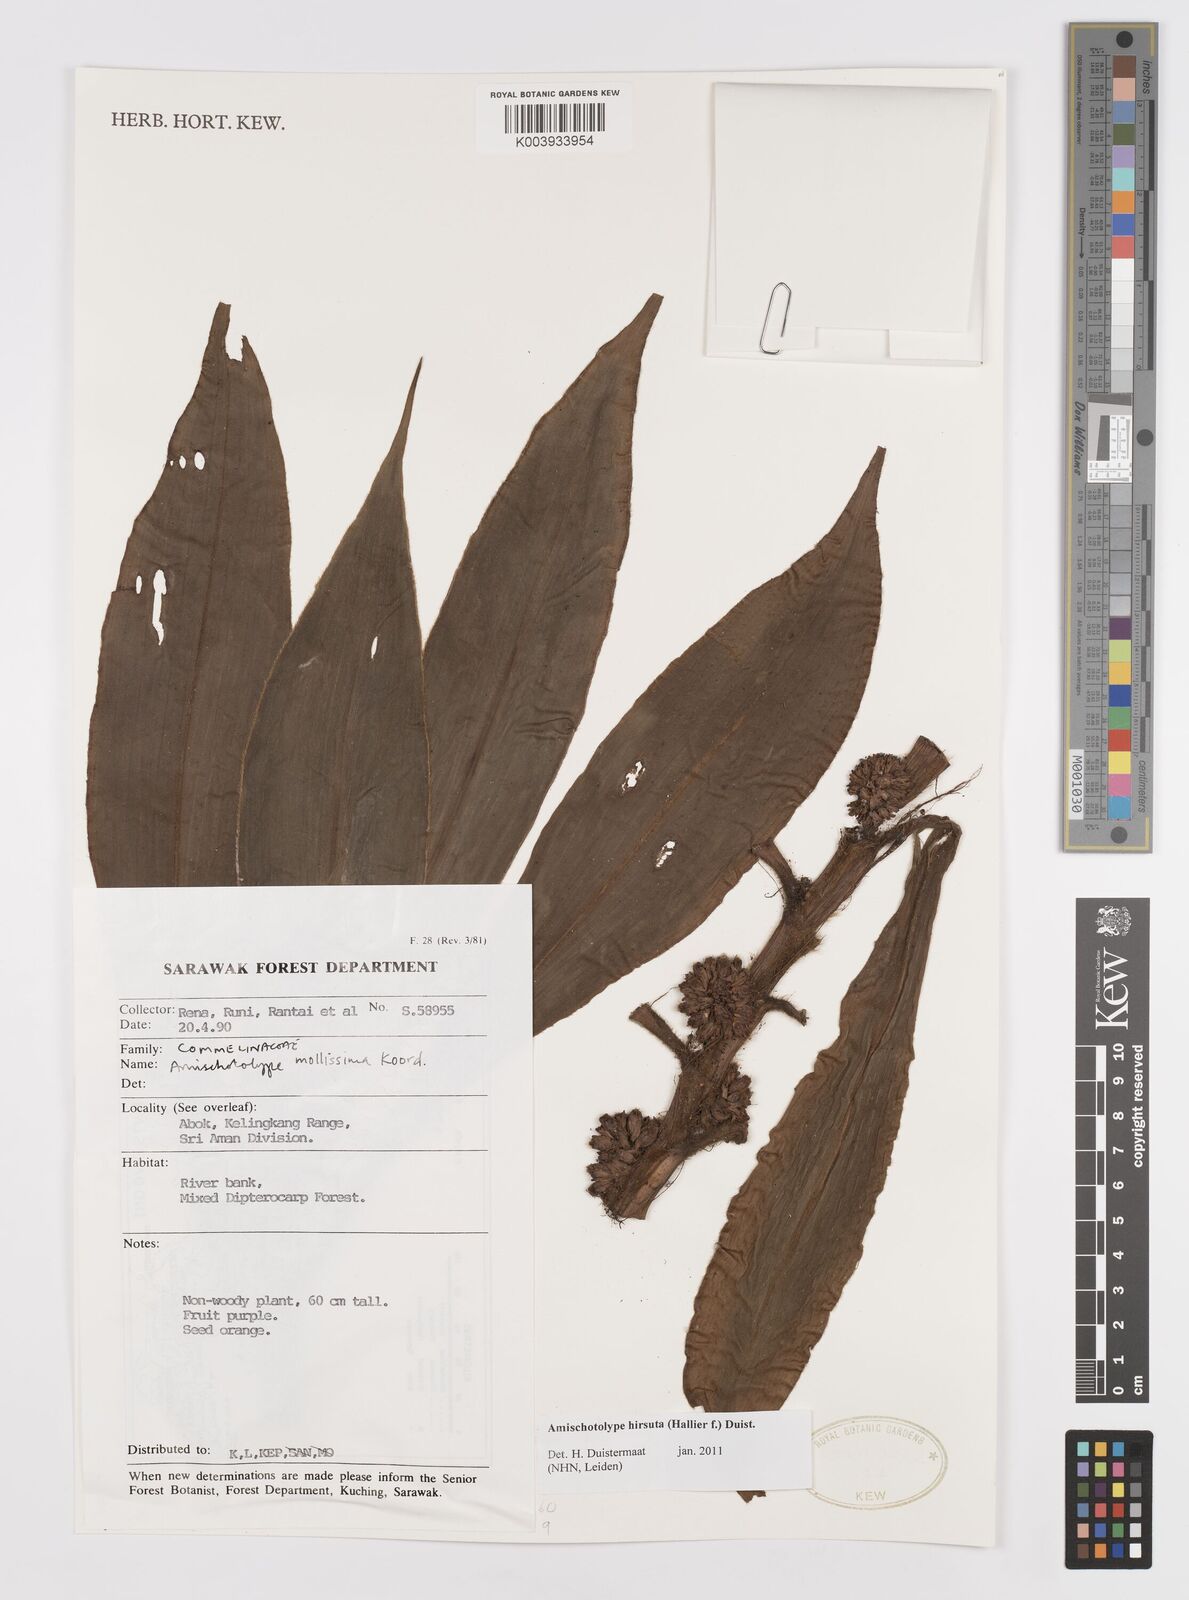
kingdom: Plantae
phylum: Tracheophyta
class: Liliopsida
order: Commelinales
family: Commelinaceae
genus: Amischotolype
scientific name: Amischotolype hirsuta
